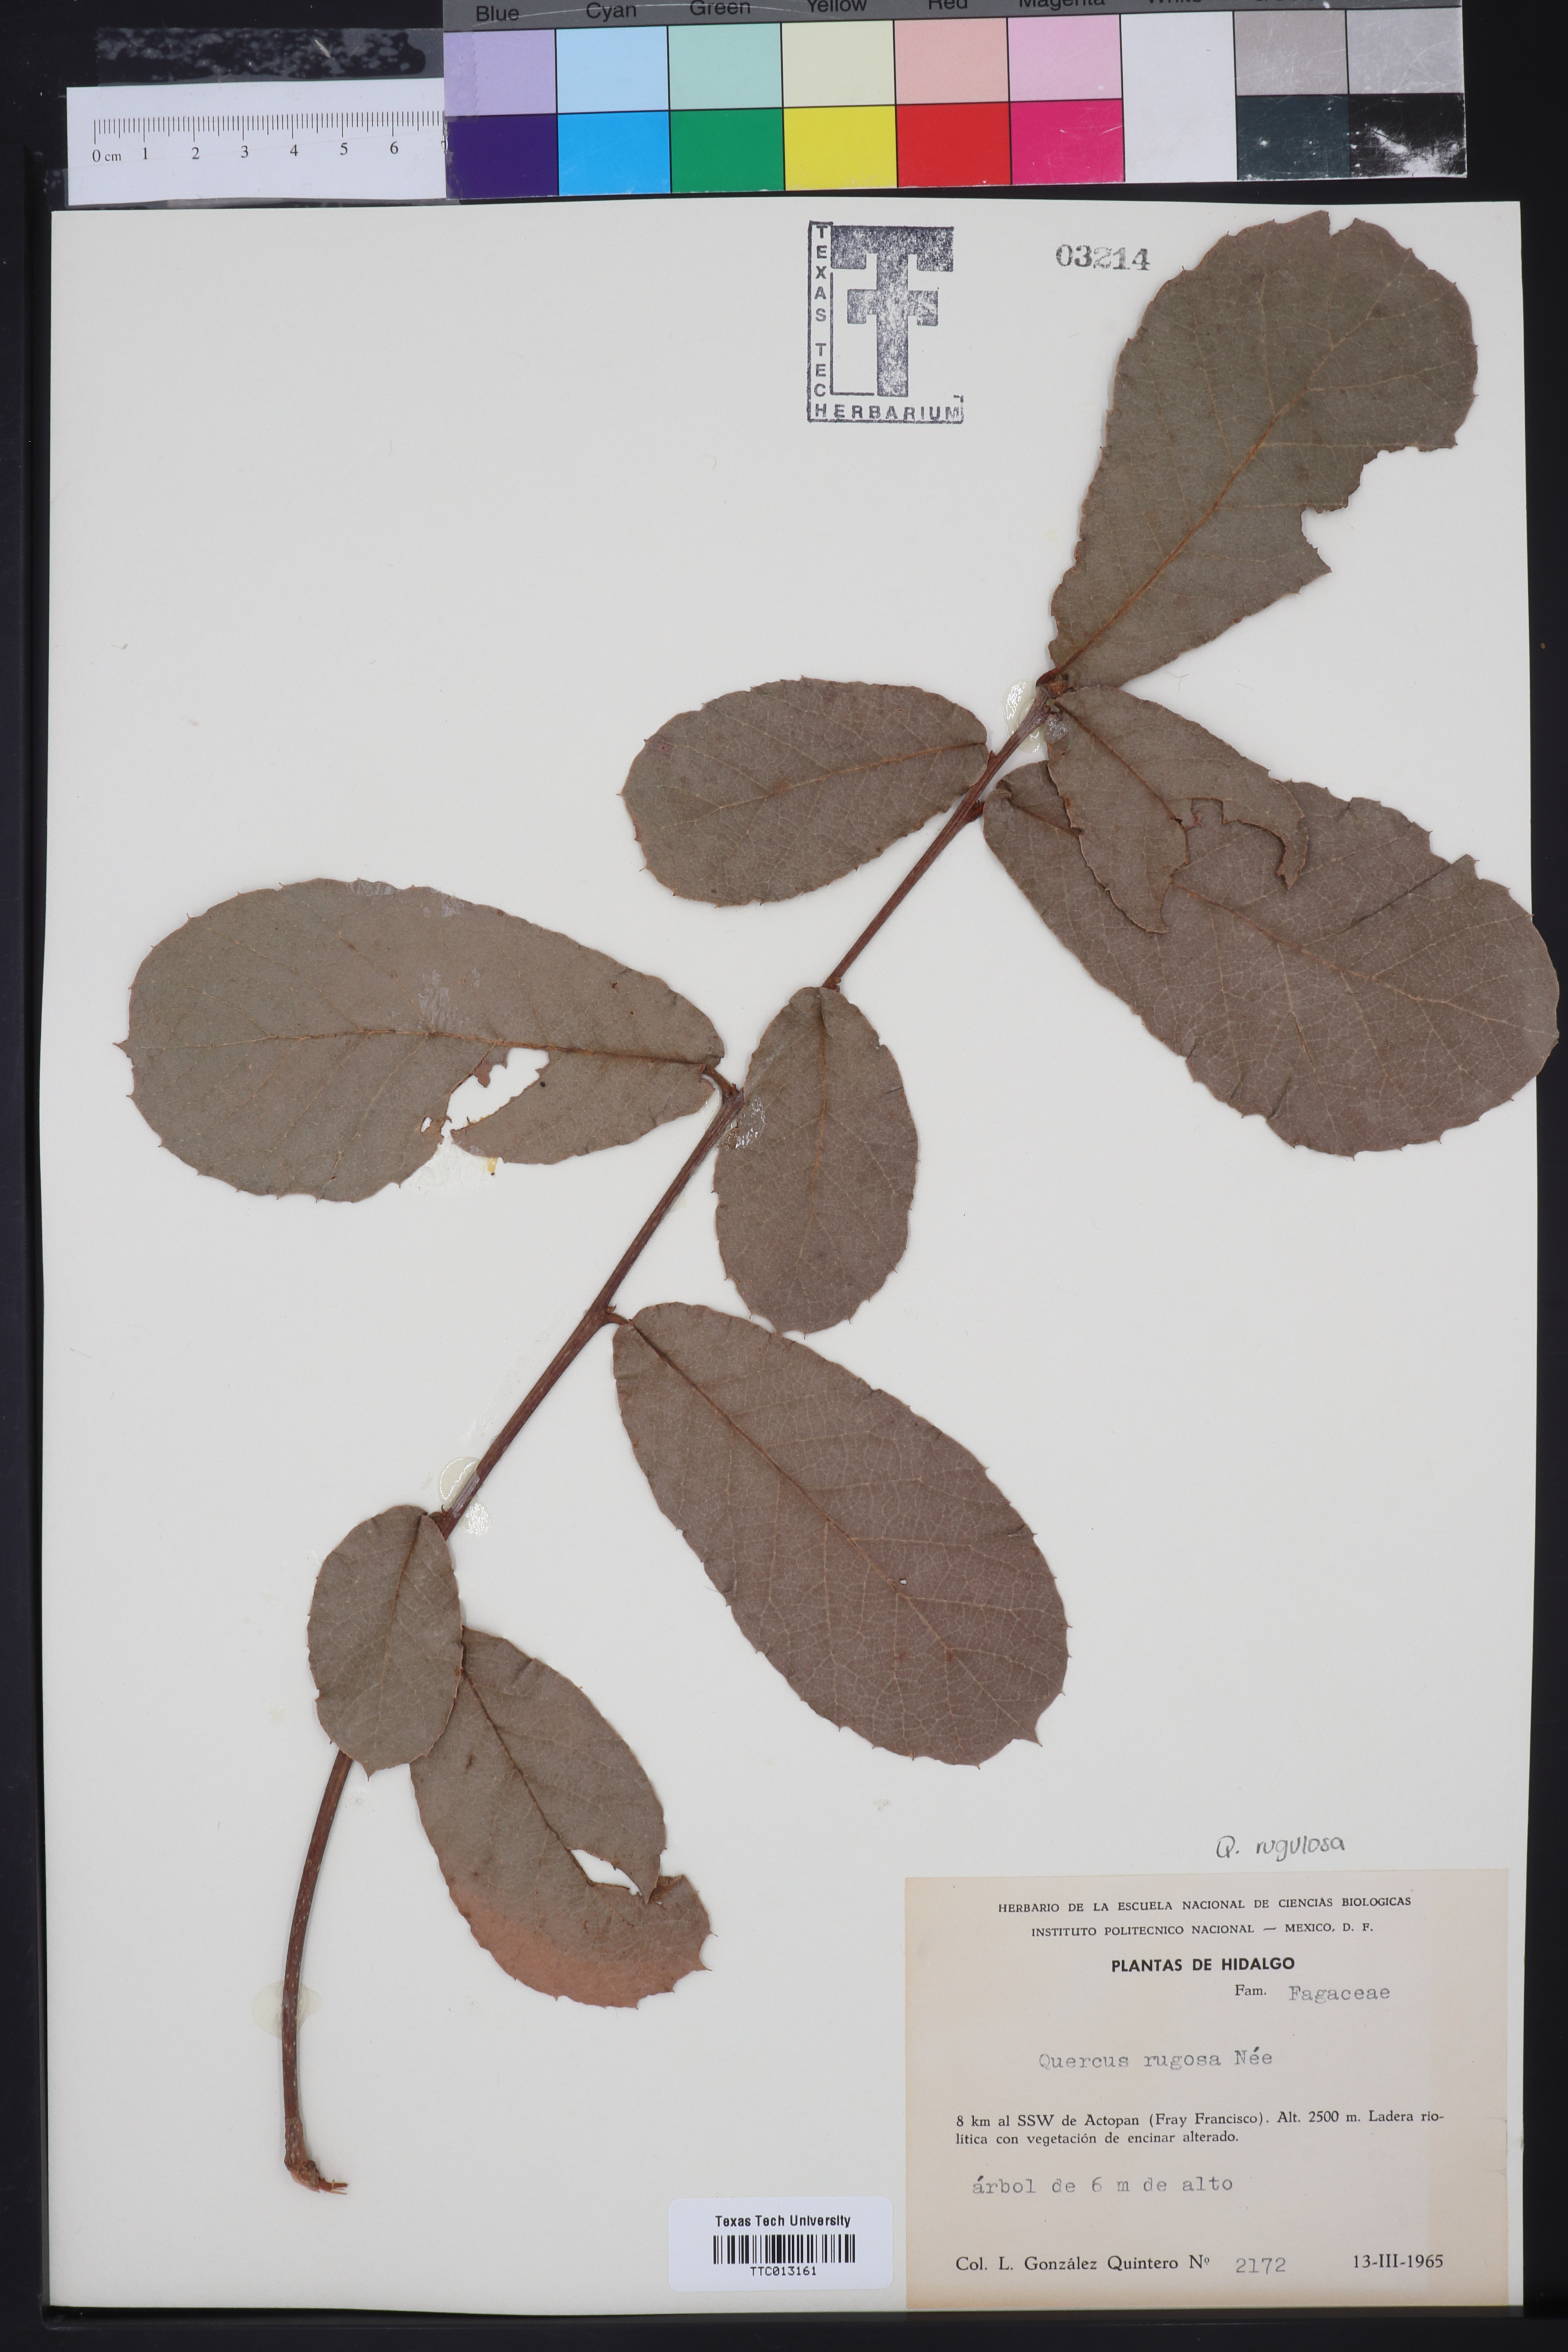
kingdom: Plantae
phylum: Tracheophyta
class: Magnoliopsida
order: Fagales
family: Fagaceae
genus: Quercus
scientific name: Quercus rugosa
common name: Netleaf oak
